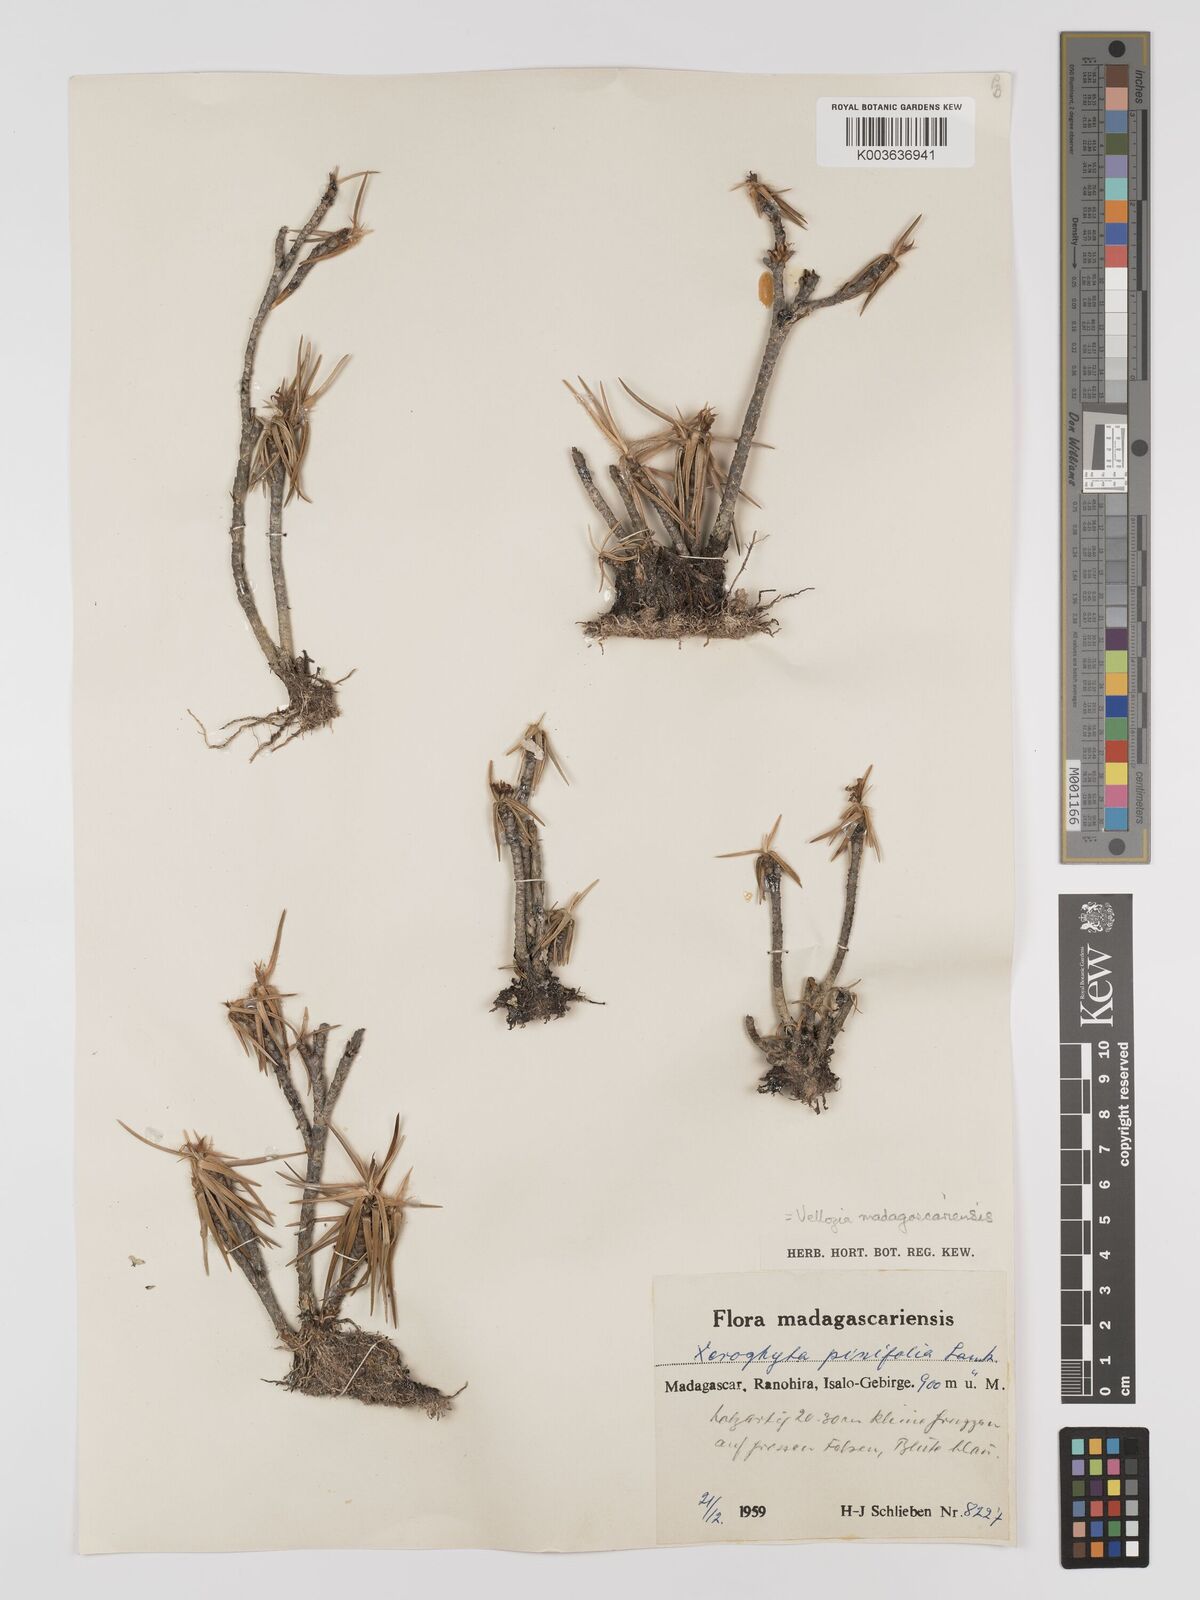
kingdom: Plantae
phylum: Tracheophyta
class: Liliopsida
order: Pandanales
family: Velloziaceae
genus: Xerophyta
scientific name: Xerophyta pinifolia
